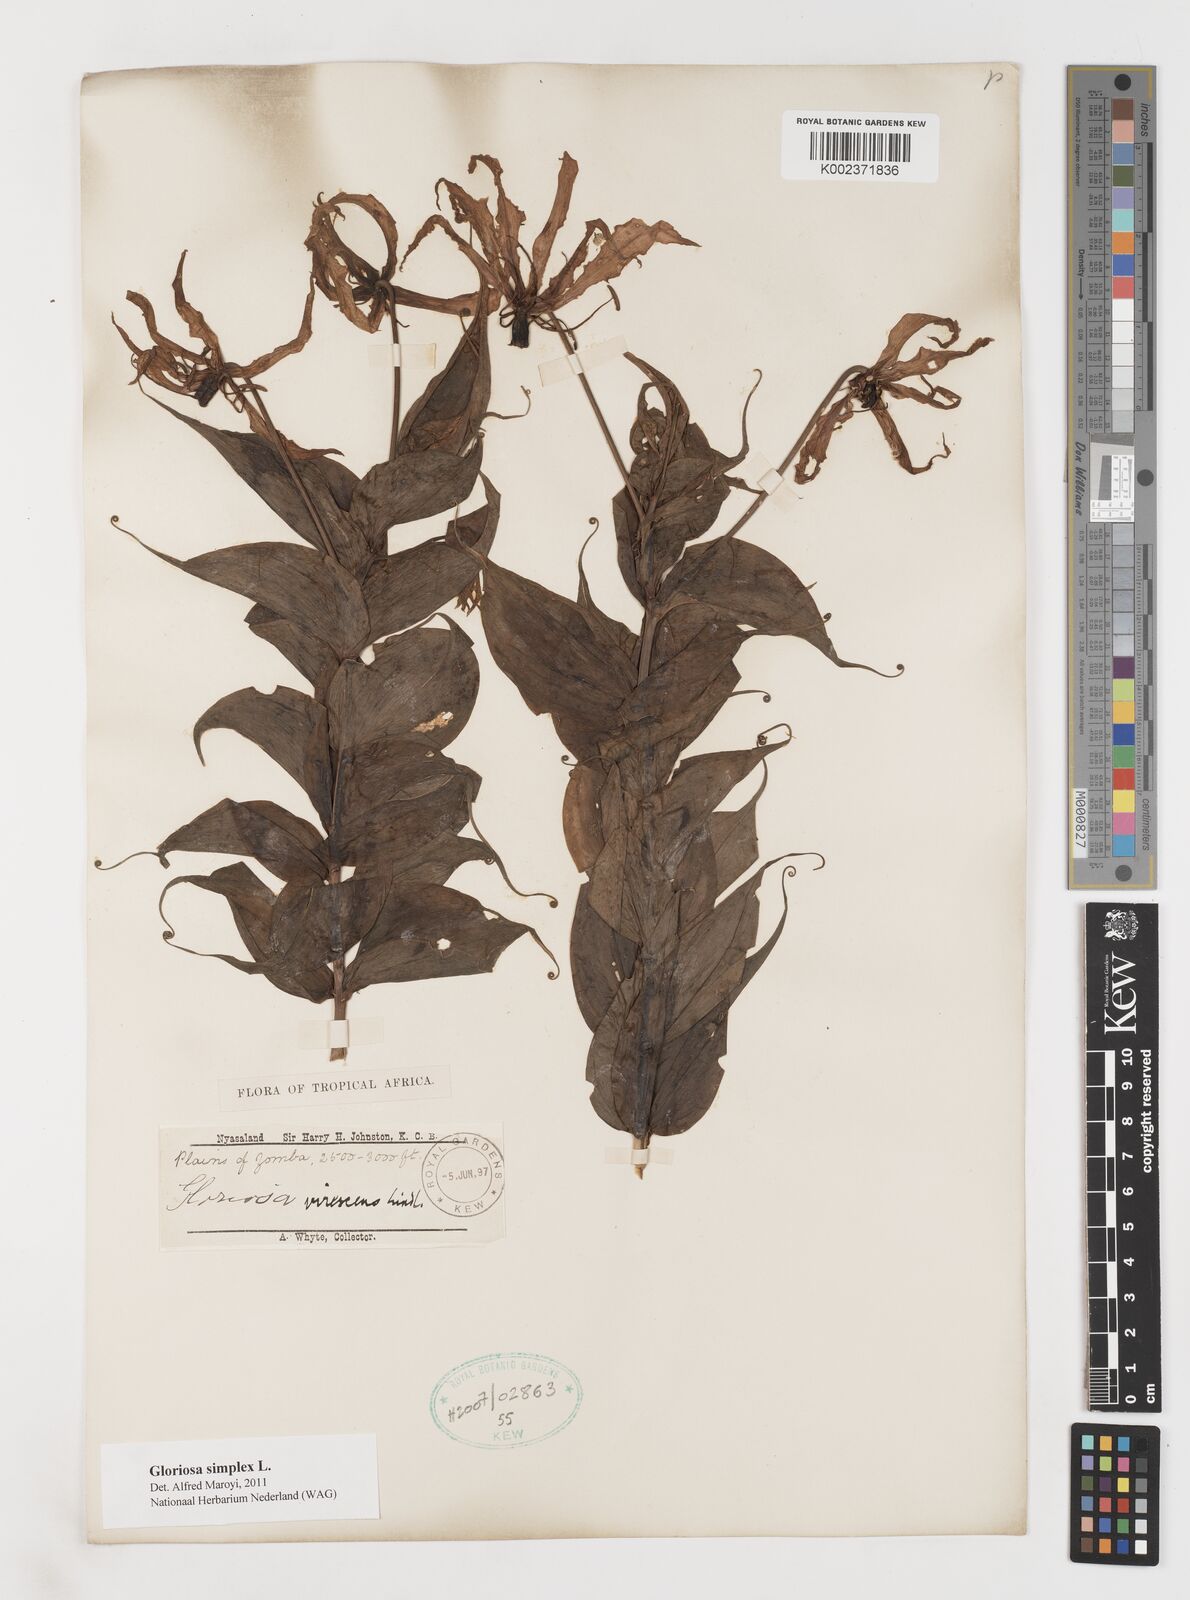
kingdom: Plantae
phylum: Tracheophyta
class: Liliopsida
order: Liliales
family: Colchicaceae
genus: Gloriosa
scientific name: Gloriosa simplex
